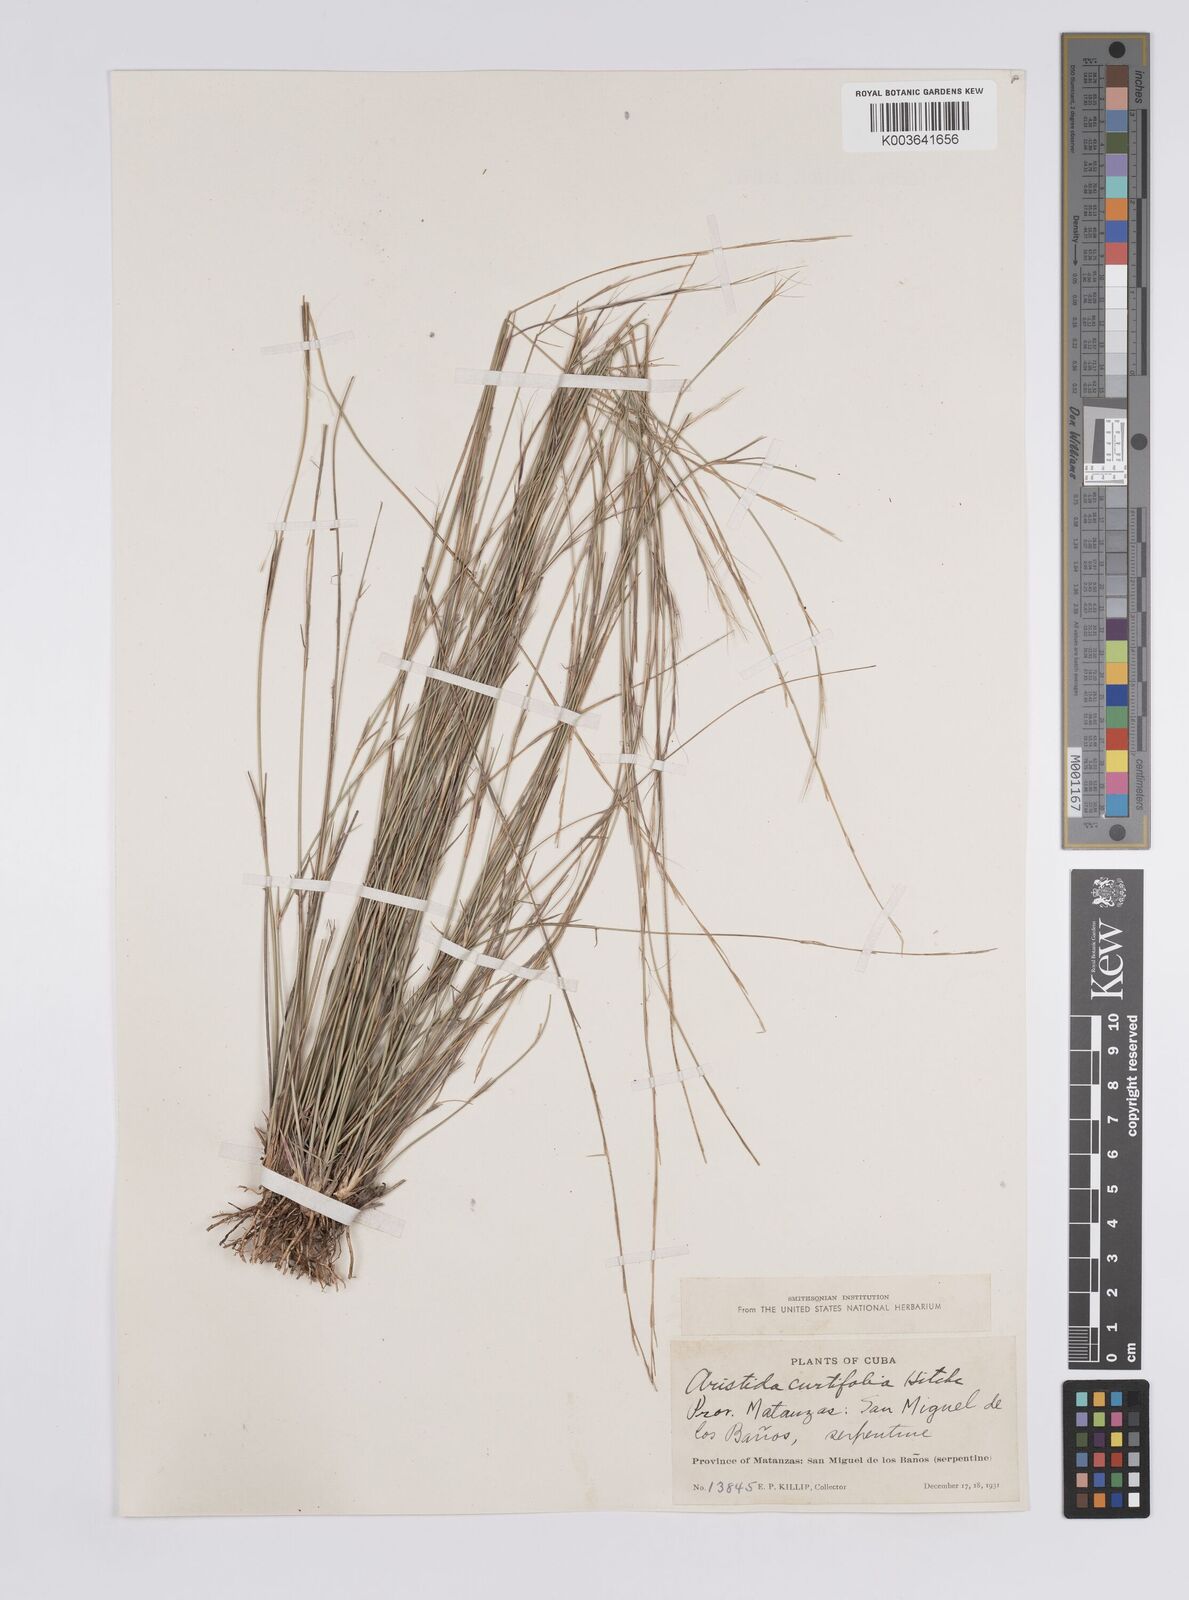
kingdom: Plantae
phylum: Tracheophyta
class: Liliopsida
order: Poales
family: Poaceae
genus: Aristida
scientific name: Aristida curtifolia
